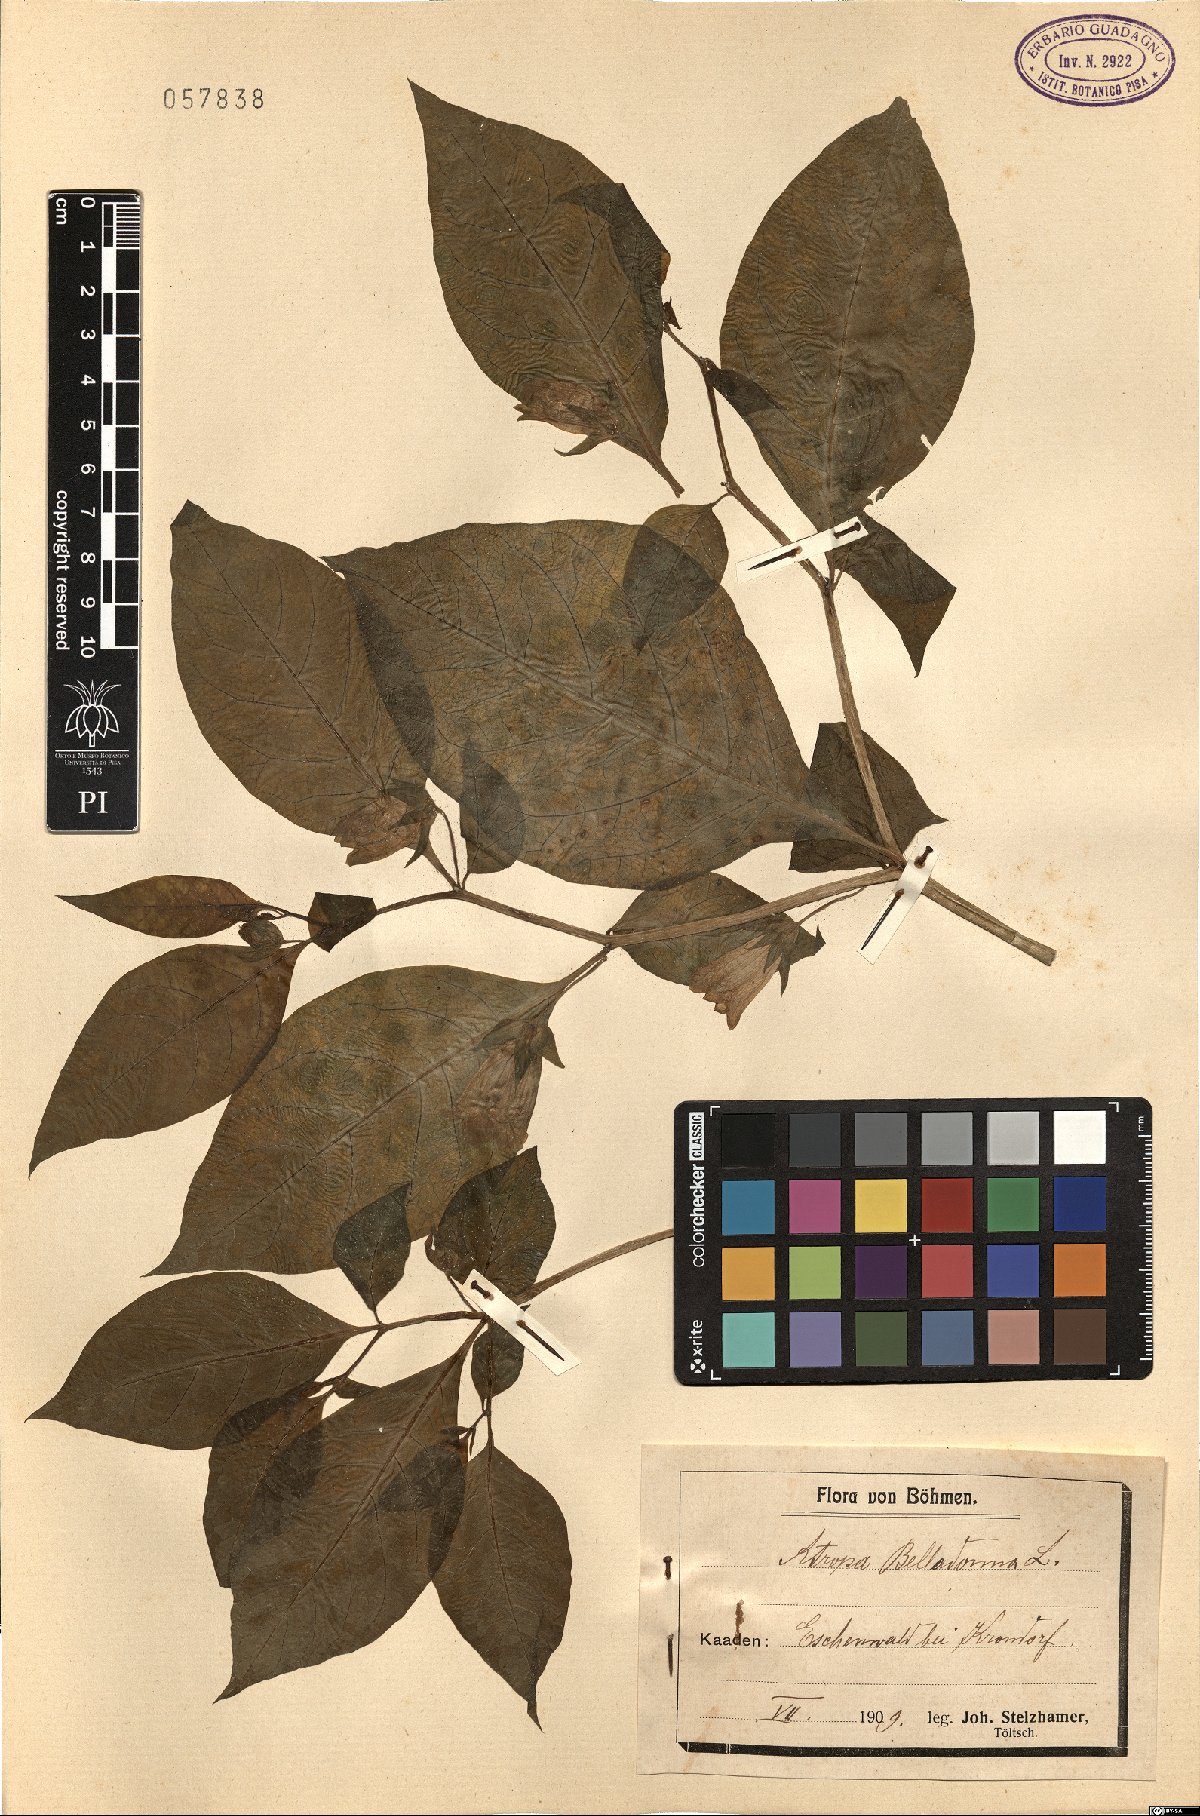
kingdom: Plantae
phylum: Tracheophyta
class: Magnoliopsida
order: Solanales
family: Solanaceae
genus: Atropa
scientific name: Atropa belladonna
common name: Deadly nightshade
